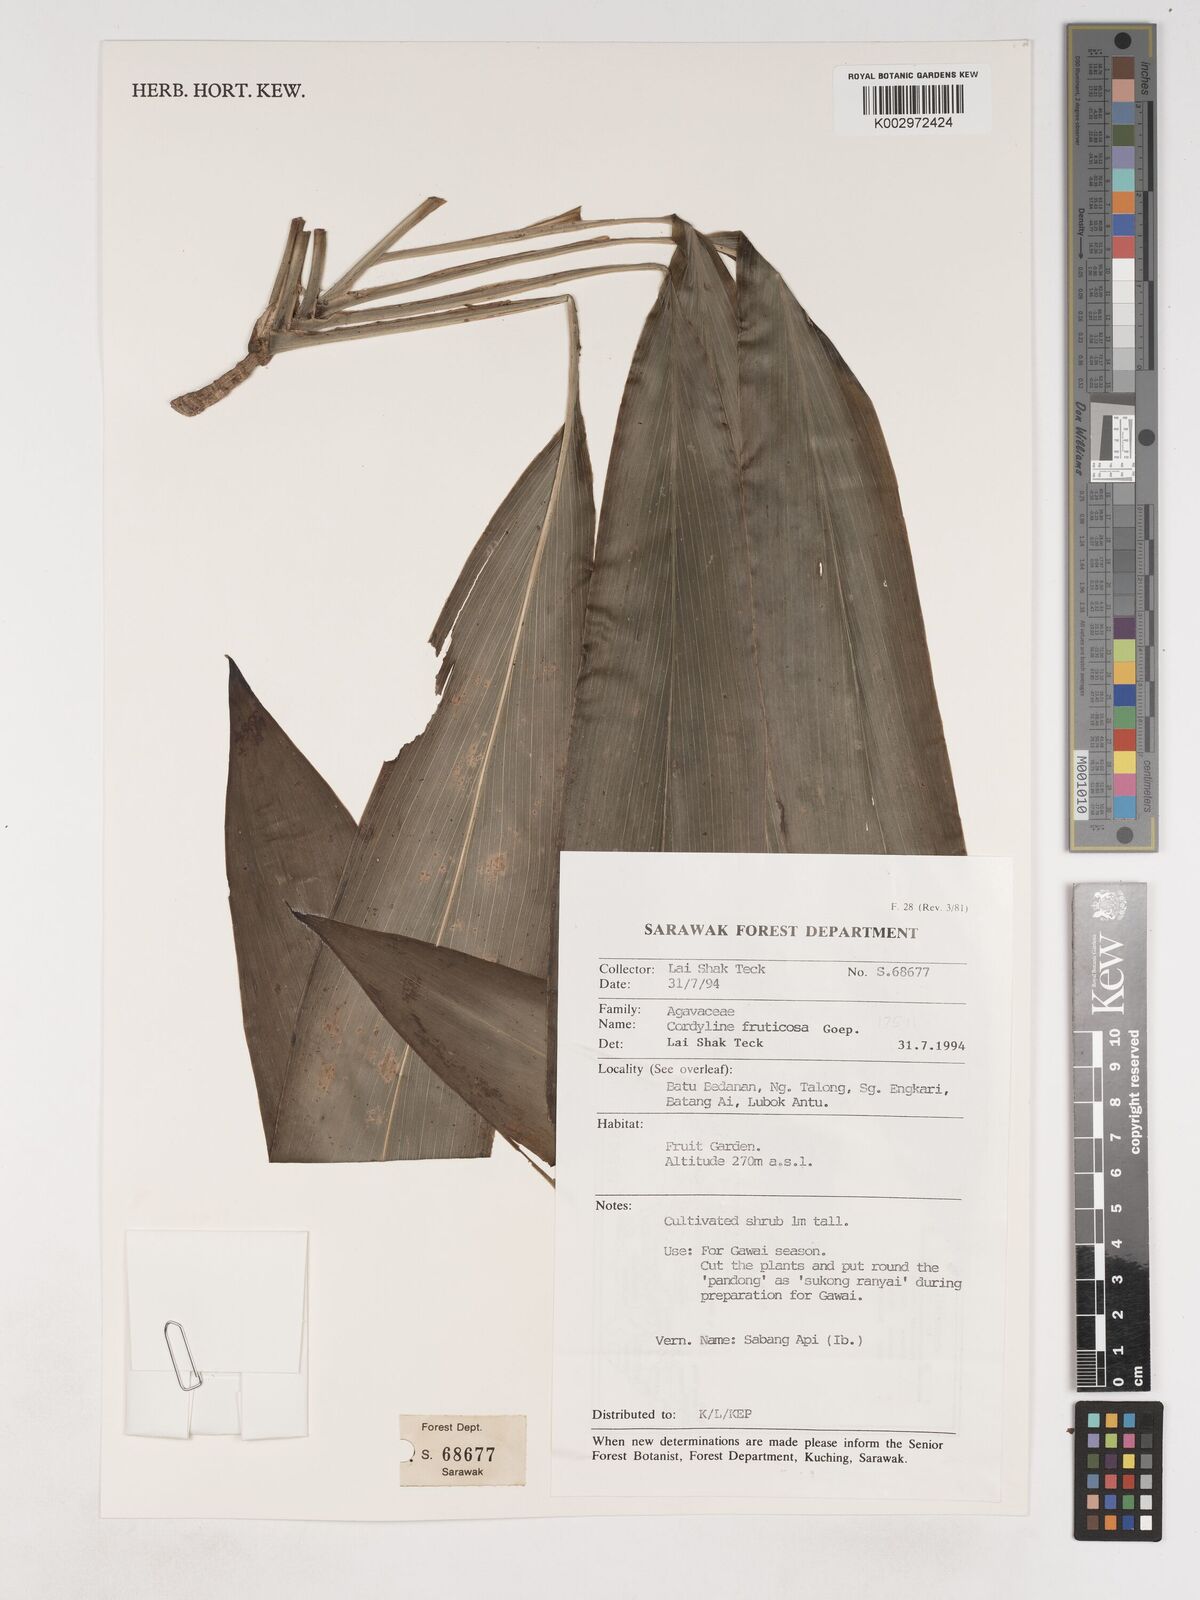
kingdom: Plantae
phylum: Tracheophyta
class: Liliopsida
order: Asparagales
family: Asparagaceae
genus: Cordyline
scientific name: Cordyline fruticosa
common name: Good-luck-plant
